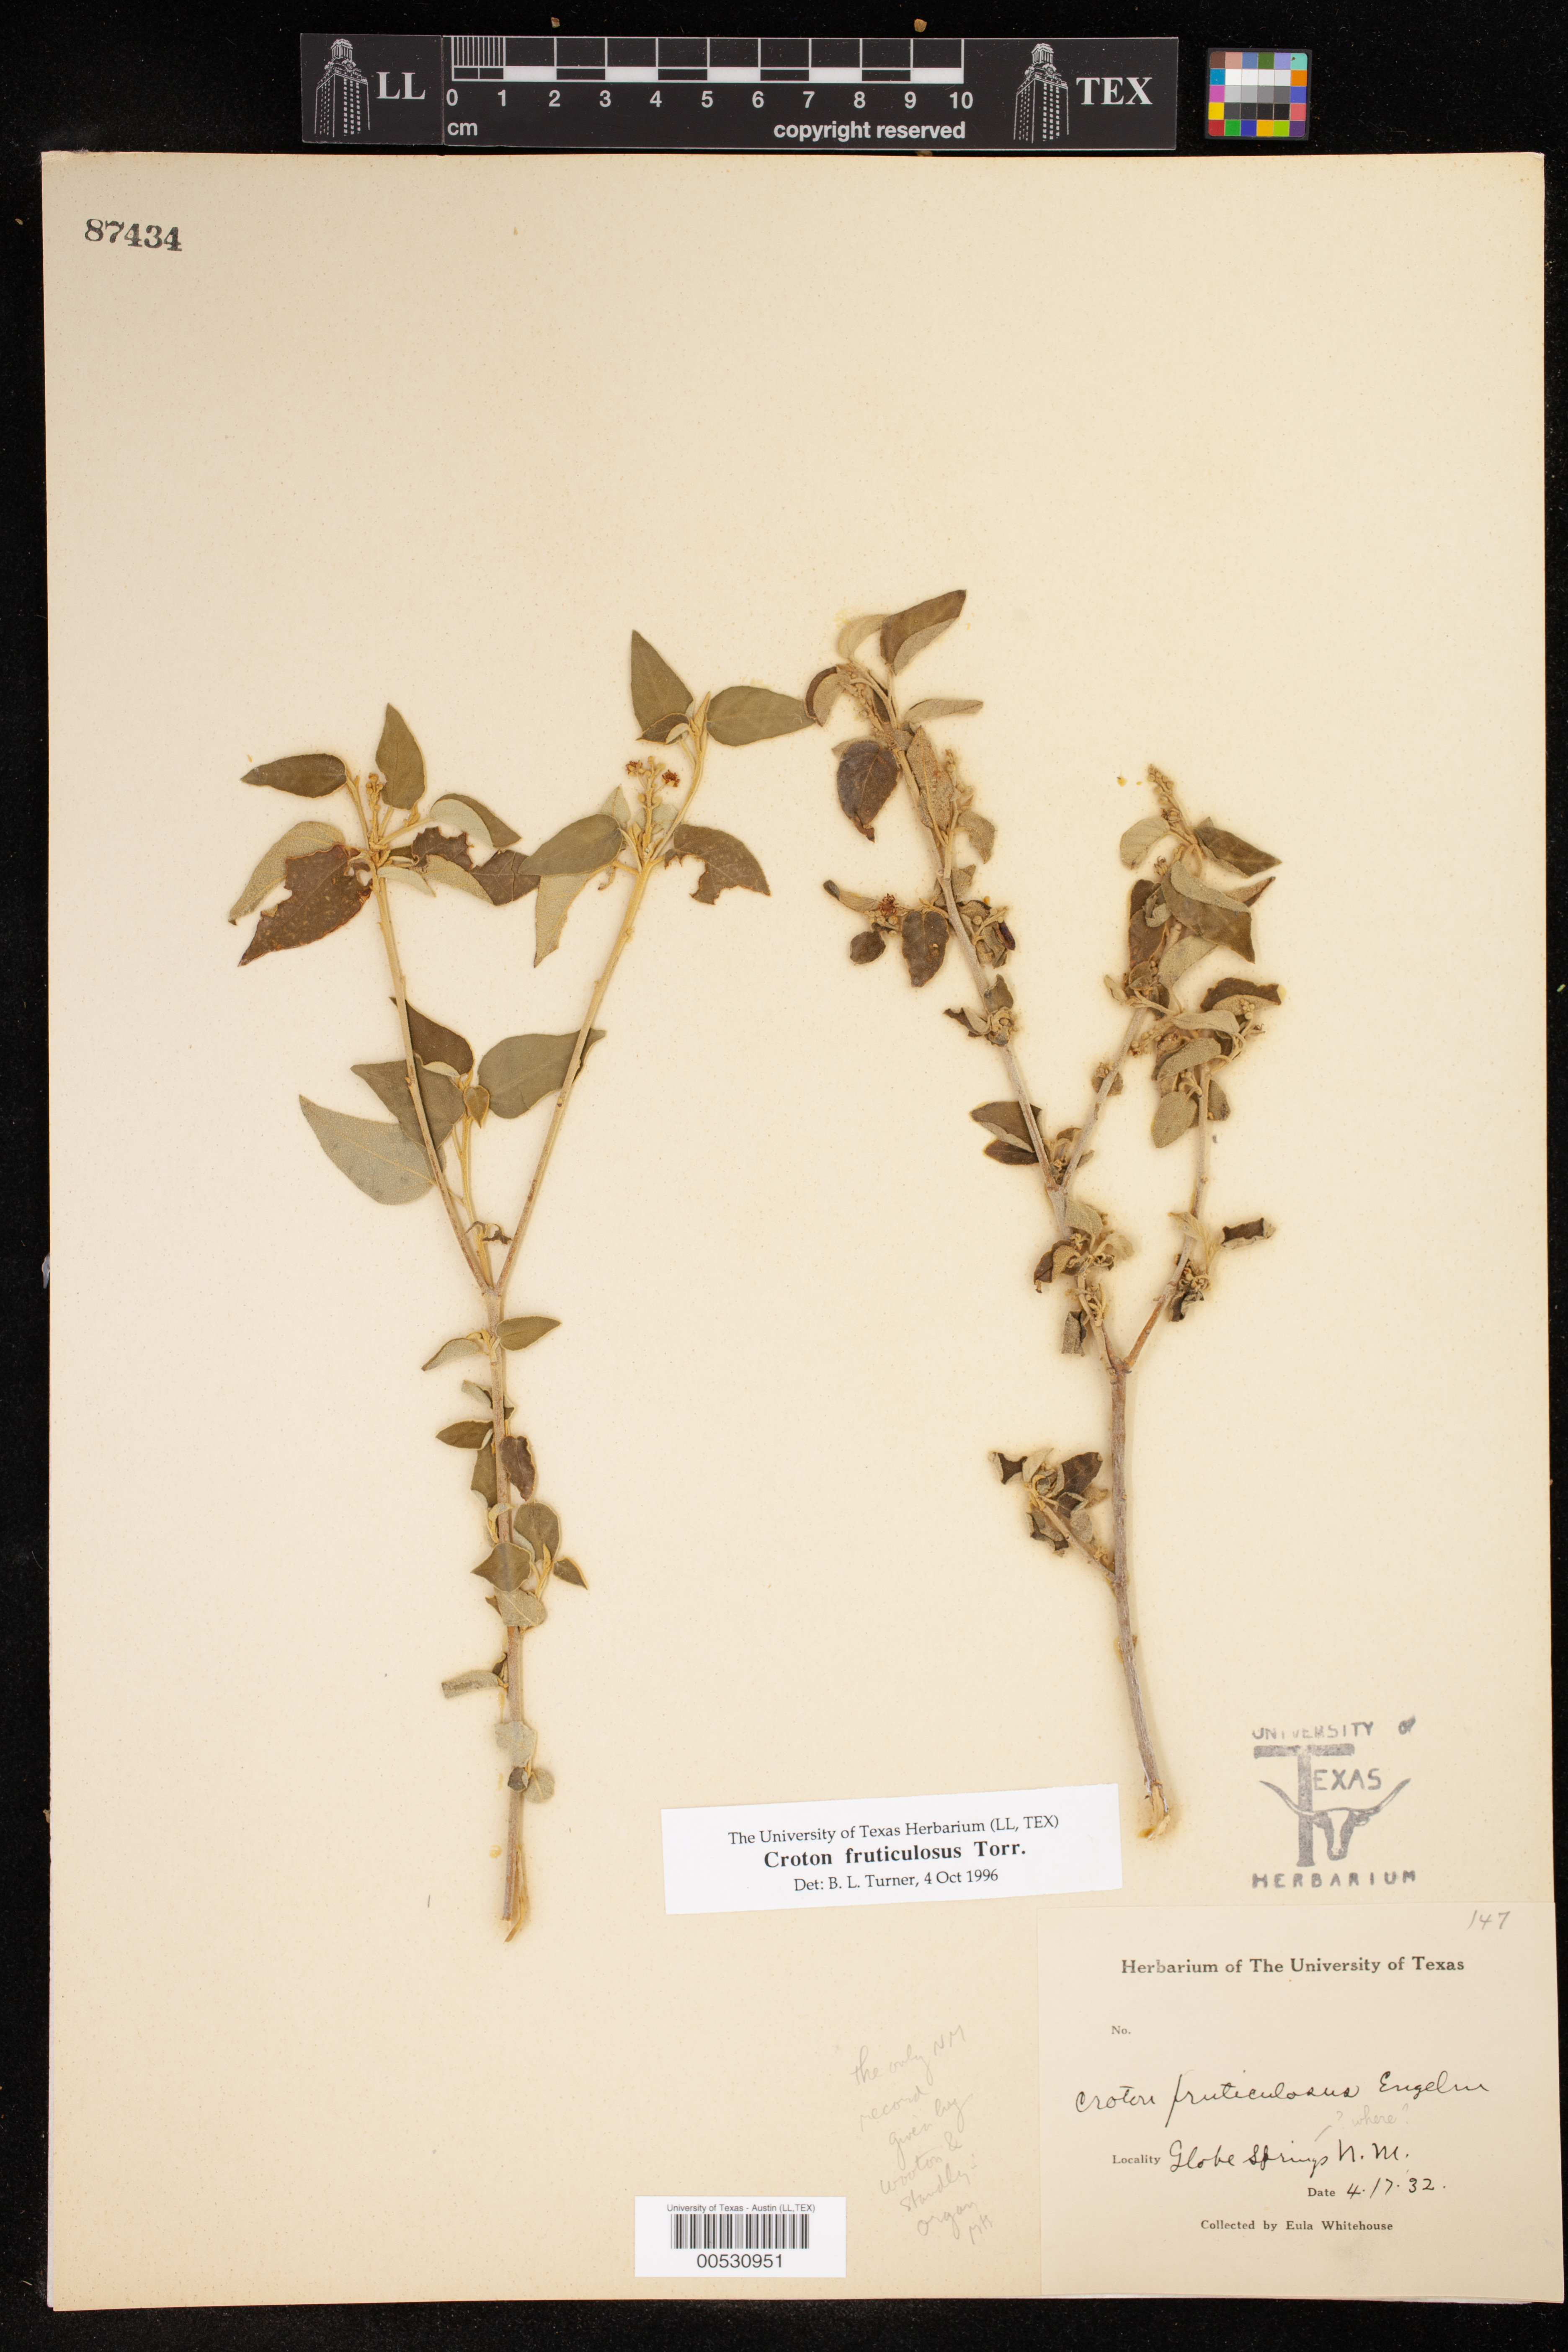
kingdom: Plantae
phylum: Tracheophyta
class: Magnoliopsida
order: Malpighiales
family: Euphorbiaceae
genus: Croton
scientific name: Croton fruticulosus
